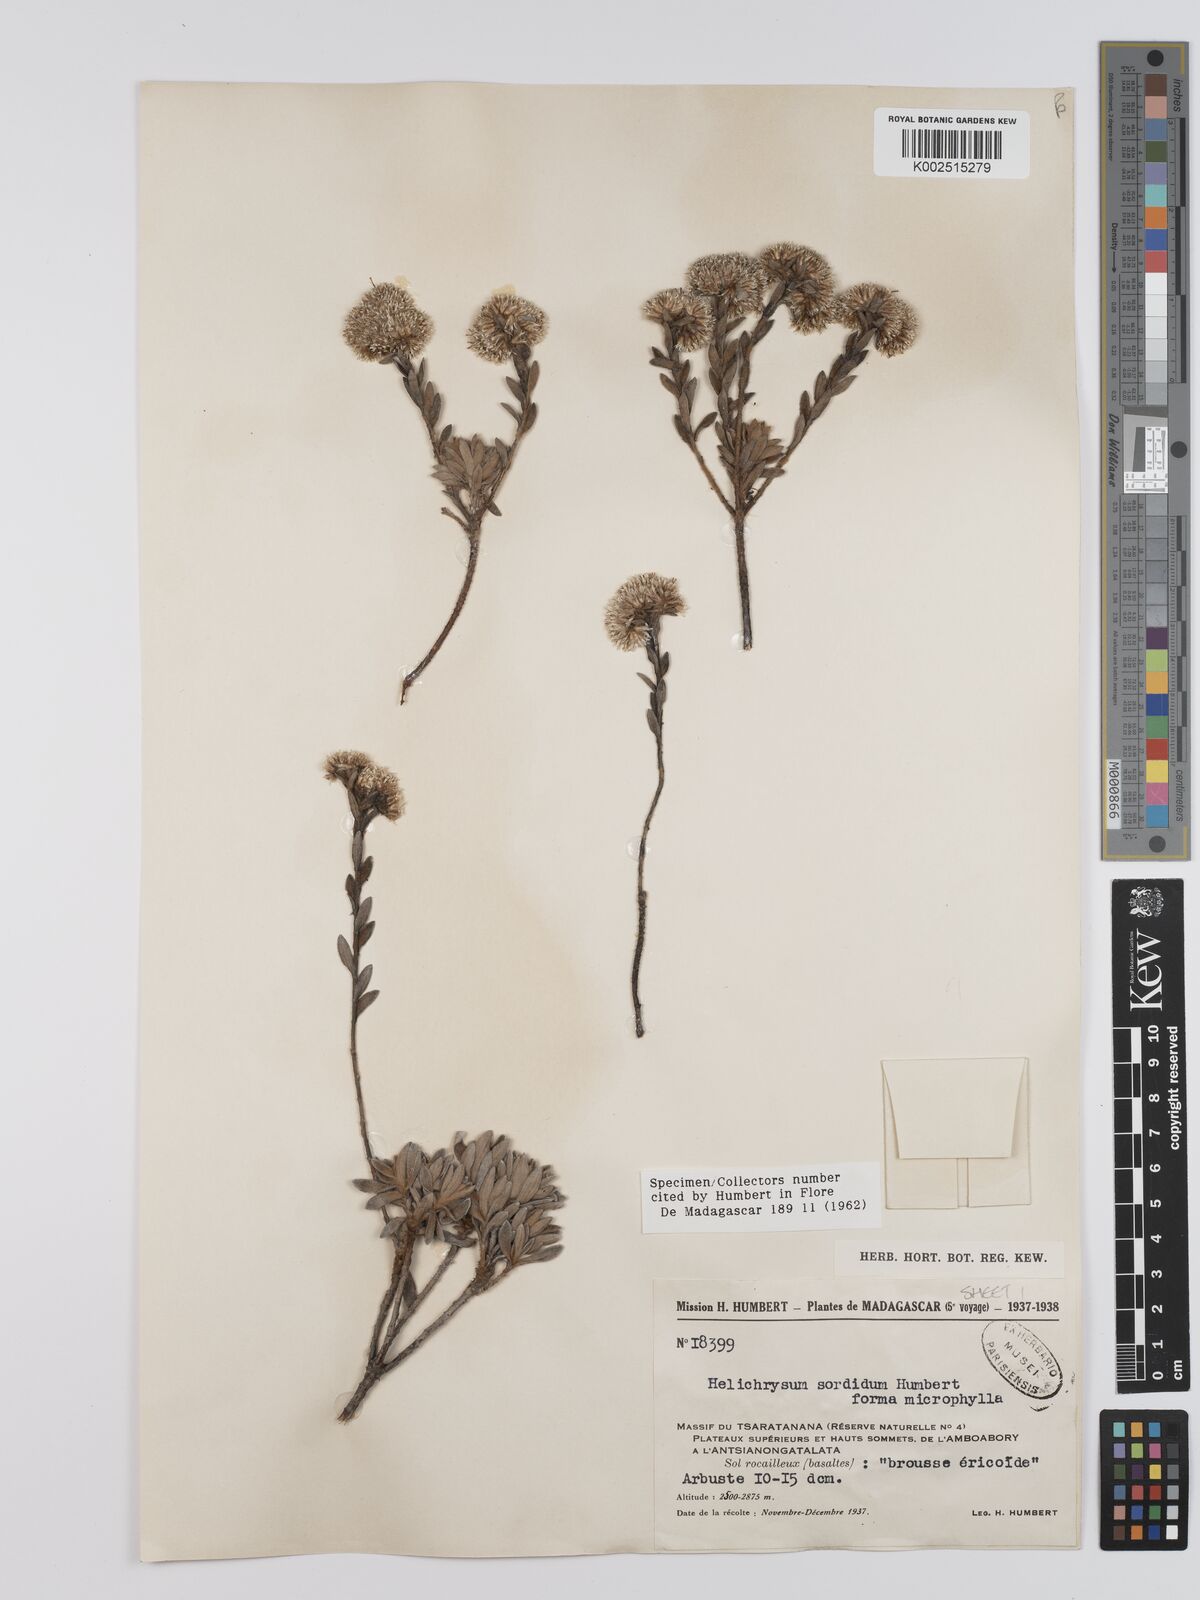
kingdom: Plantae
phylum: Tracheophyta
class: Magnoliopsida
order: Asterales
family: Asteraceae
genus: Helichrysum
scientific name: Helichrysum sordidum
